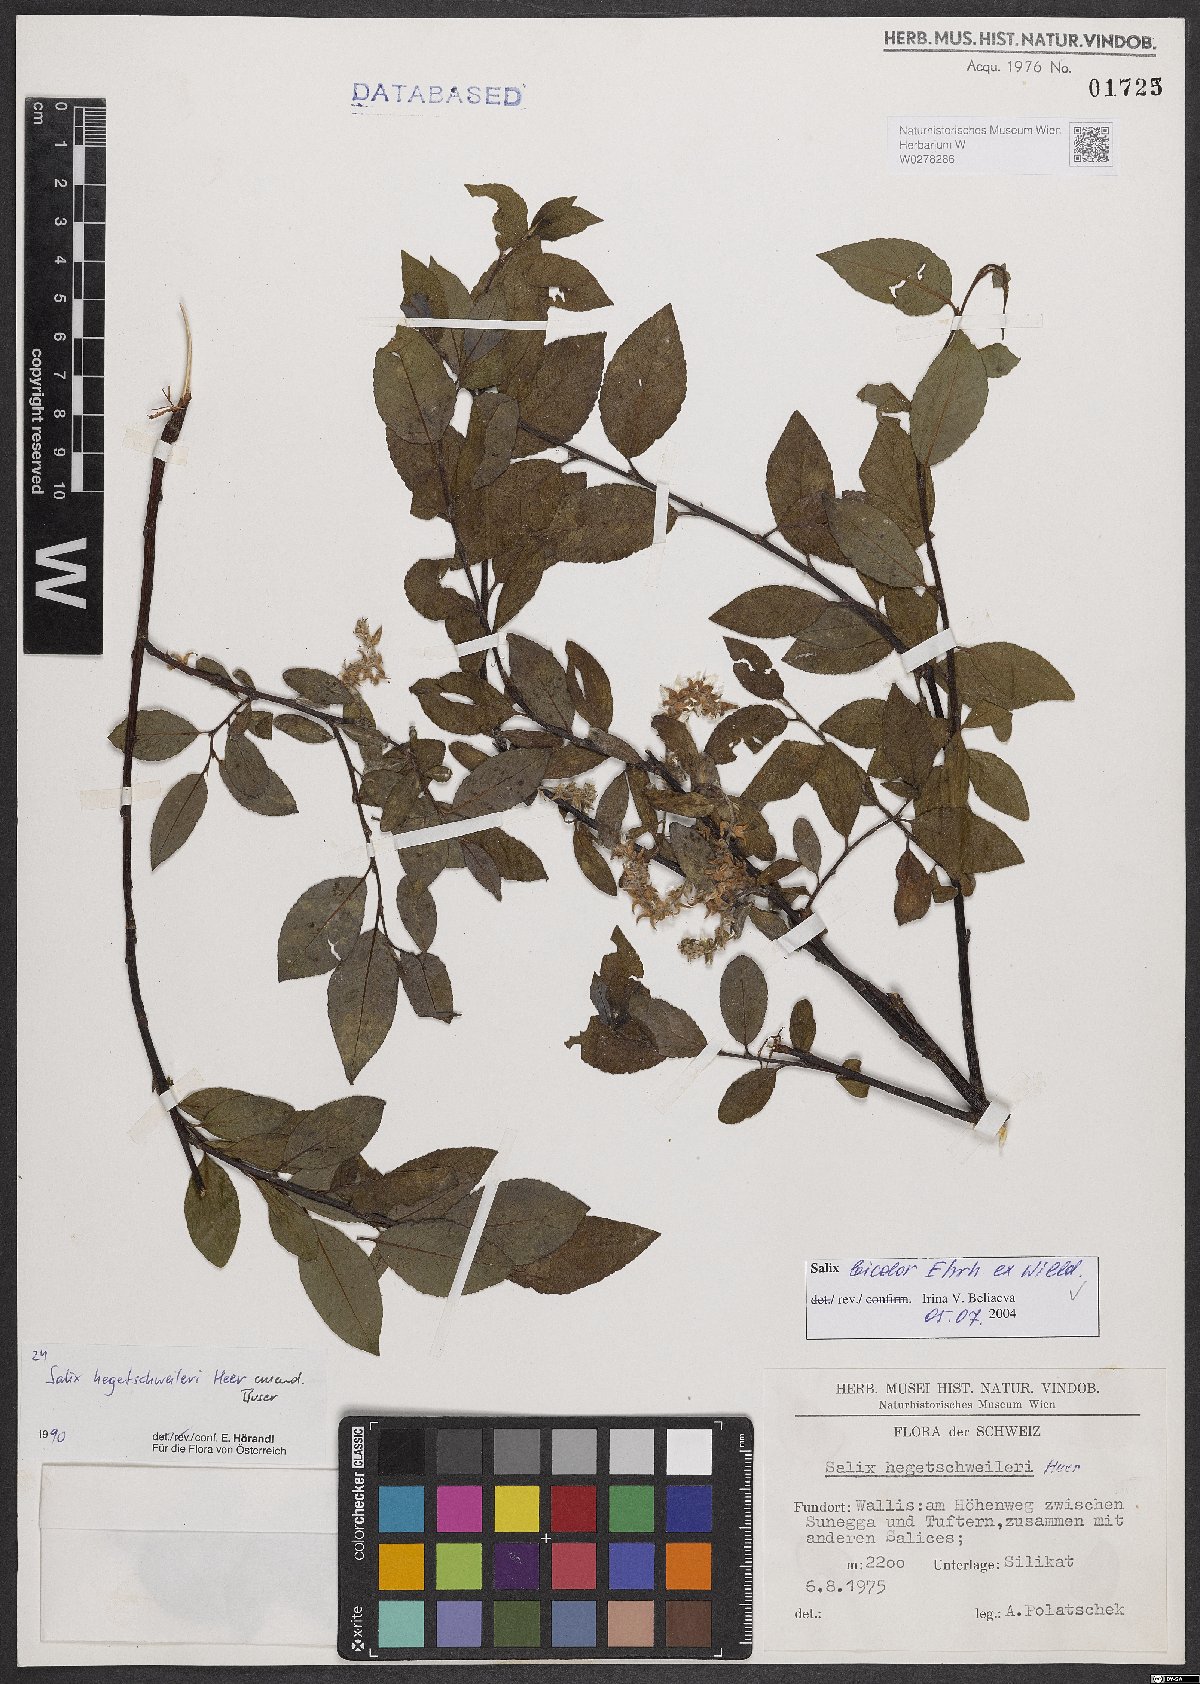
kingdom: Plantae
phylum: Tracheophyta
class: Magnoliopsida
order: Malpighiales
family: Salicaceae
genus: Salix
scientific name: Salix bicolor
